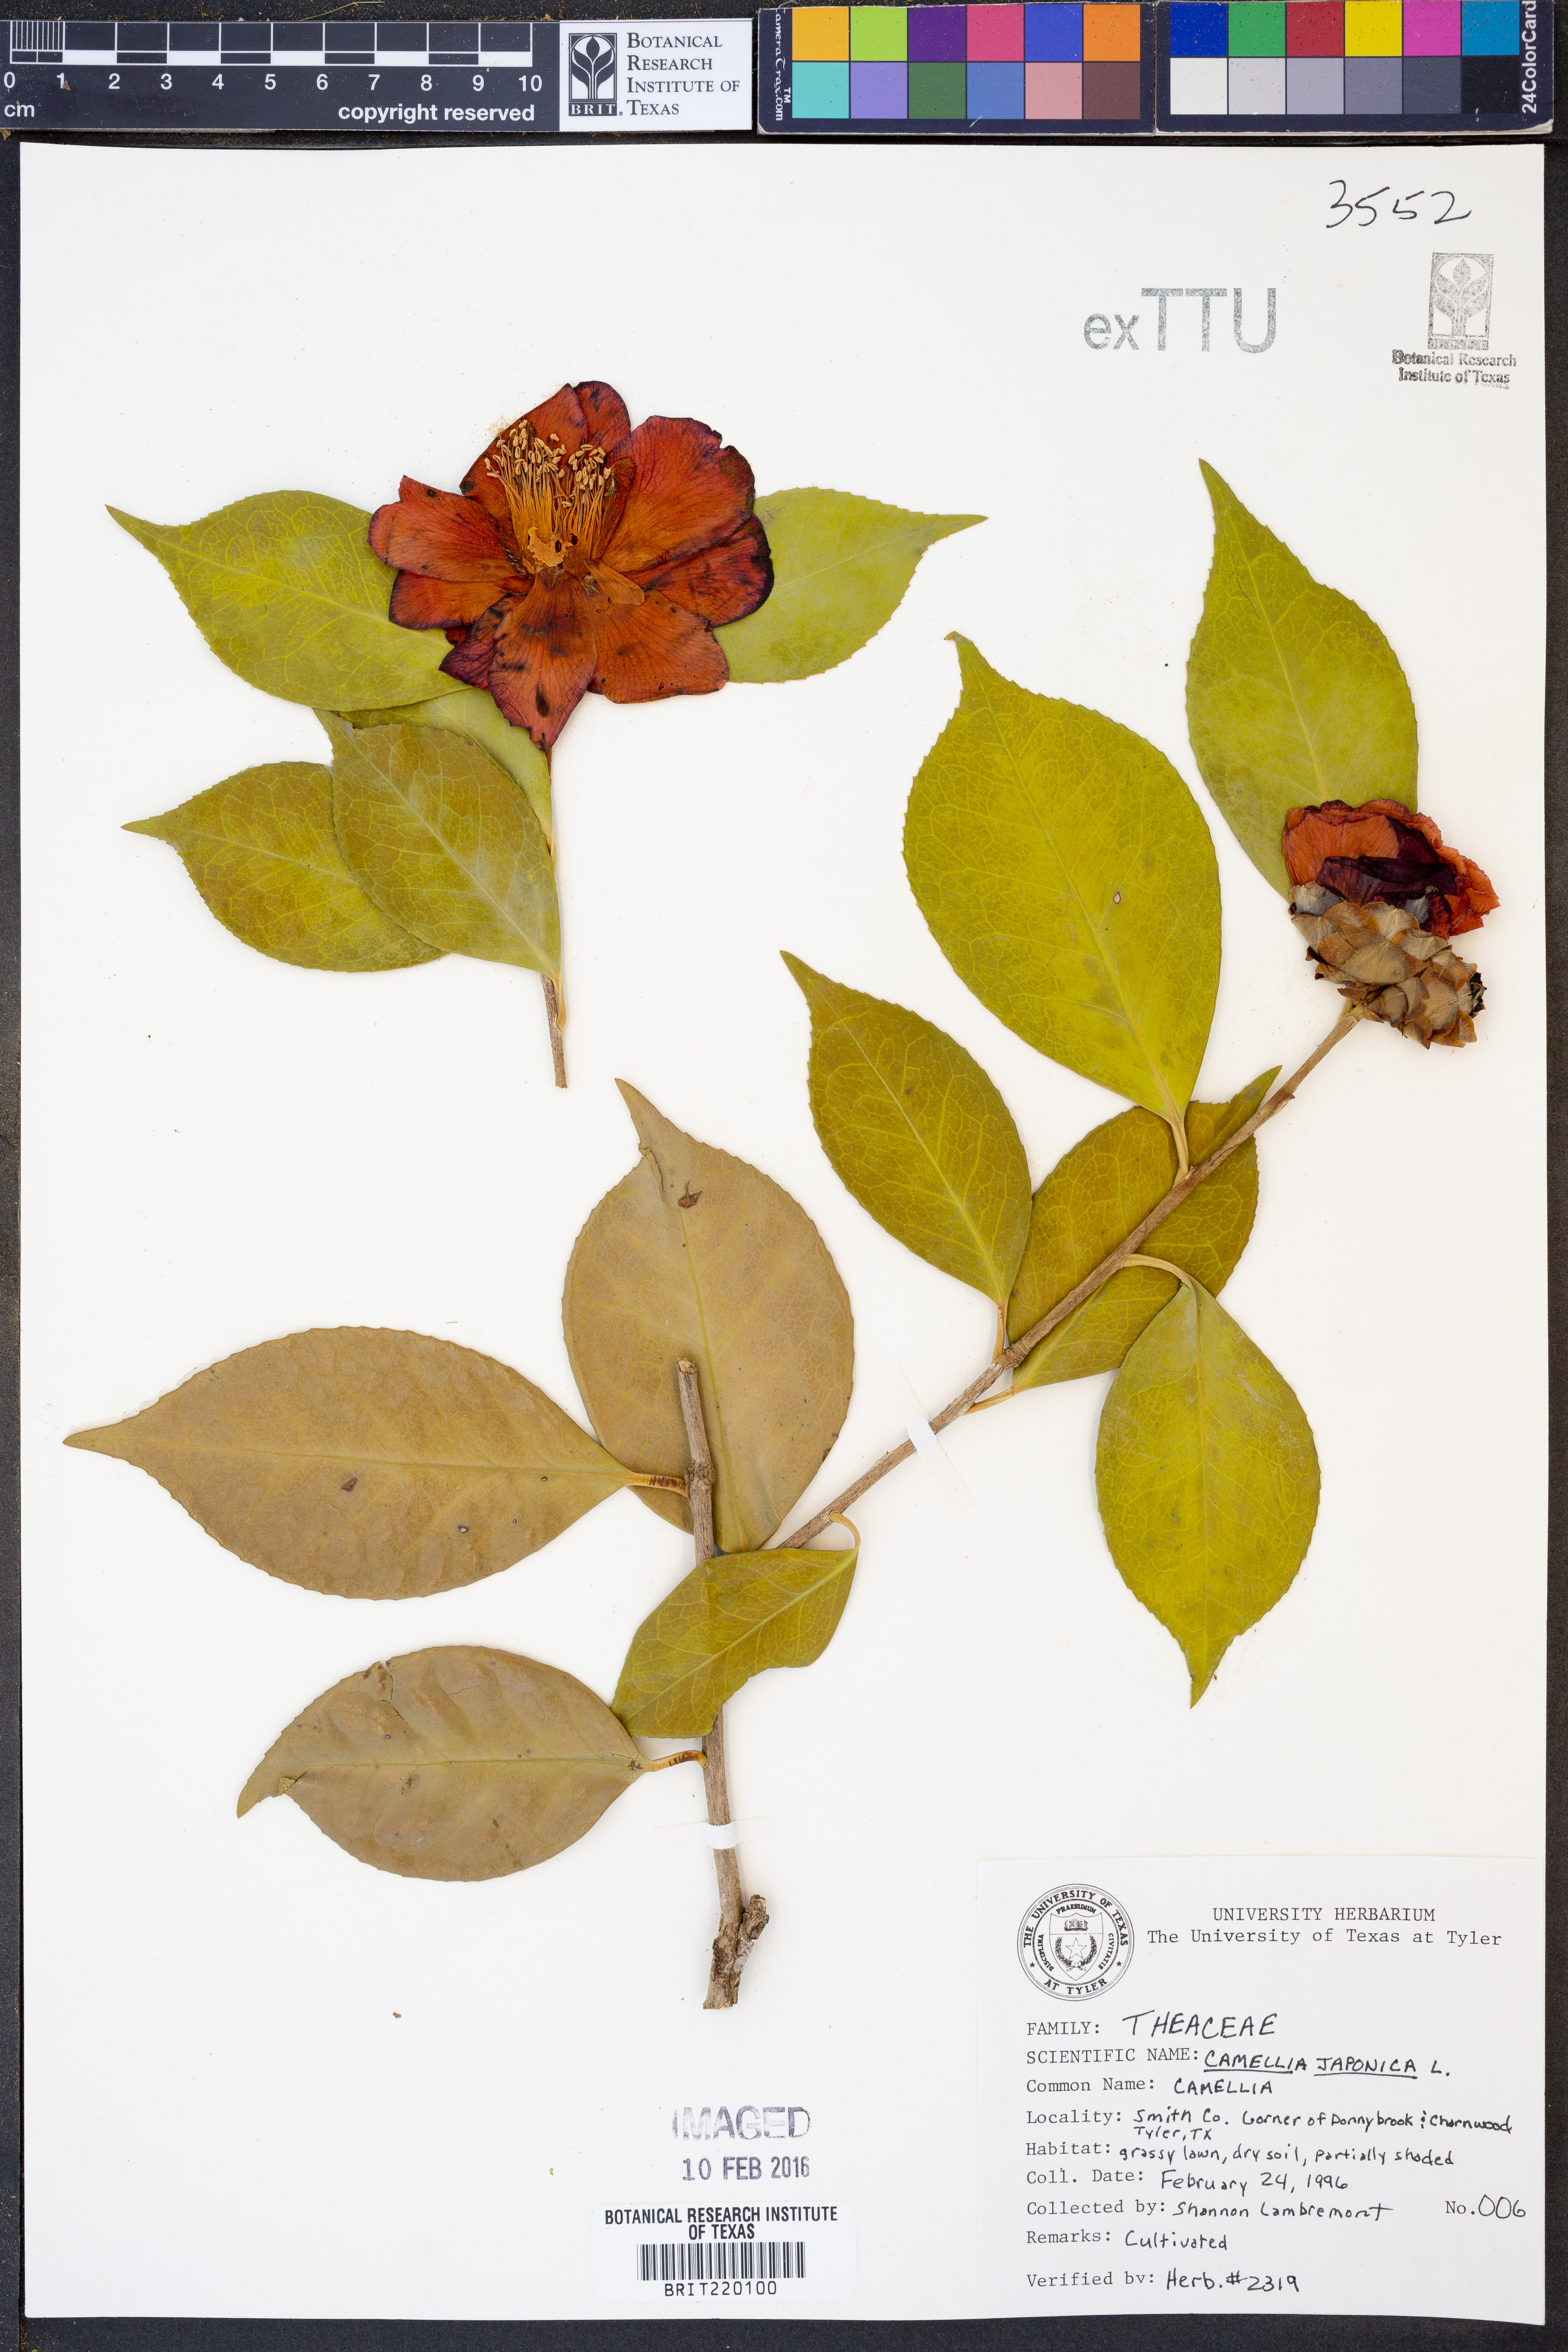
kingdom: Plantae
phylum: Tracheophyta
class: Magnoliopsida
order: Ericales
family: Theaceae
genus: Camellia
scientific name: Camellia japonica
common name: Camellia
